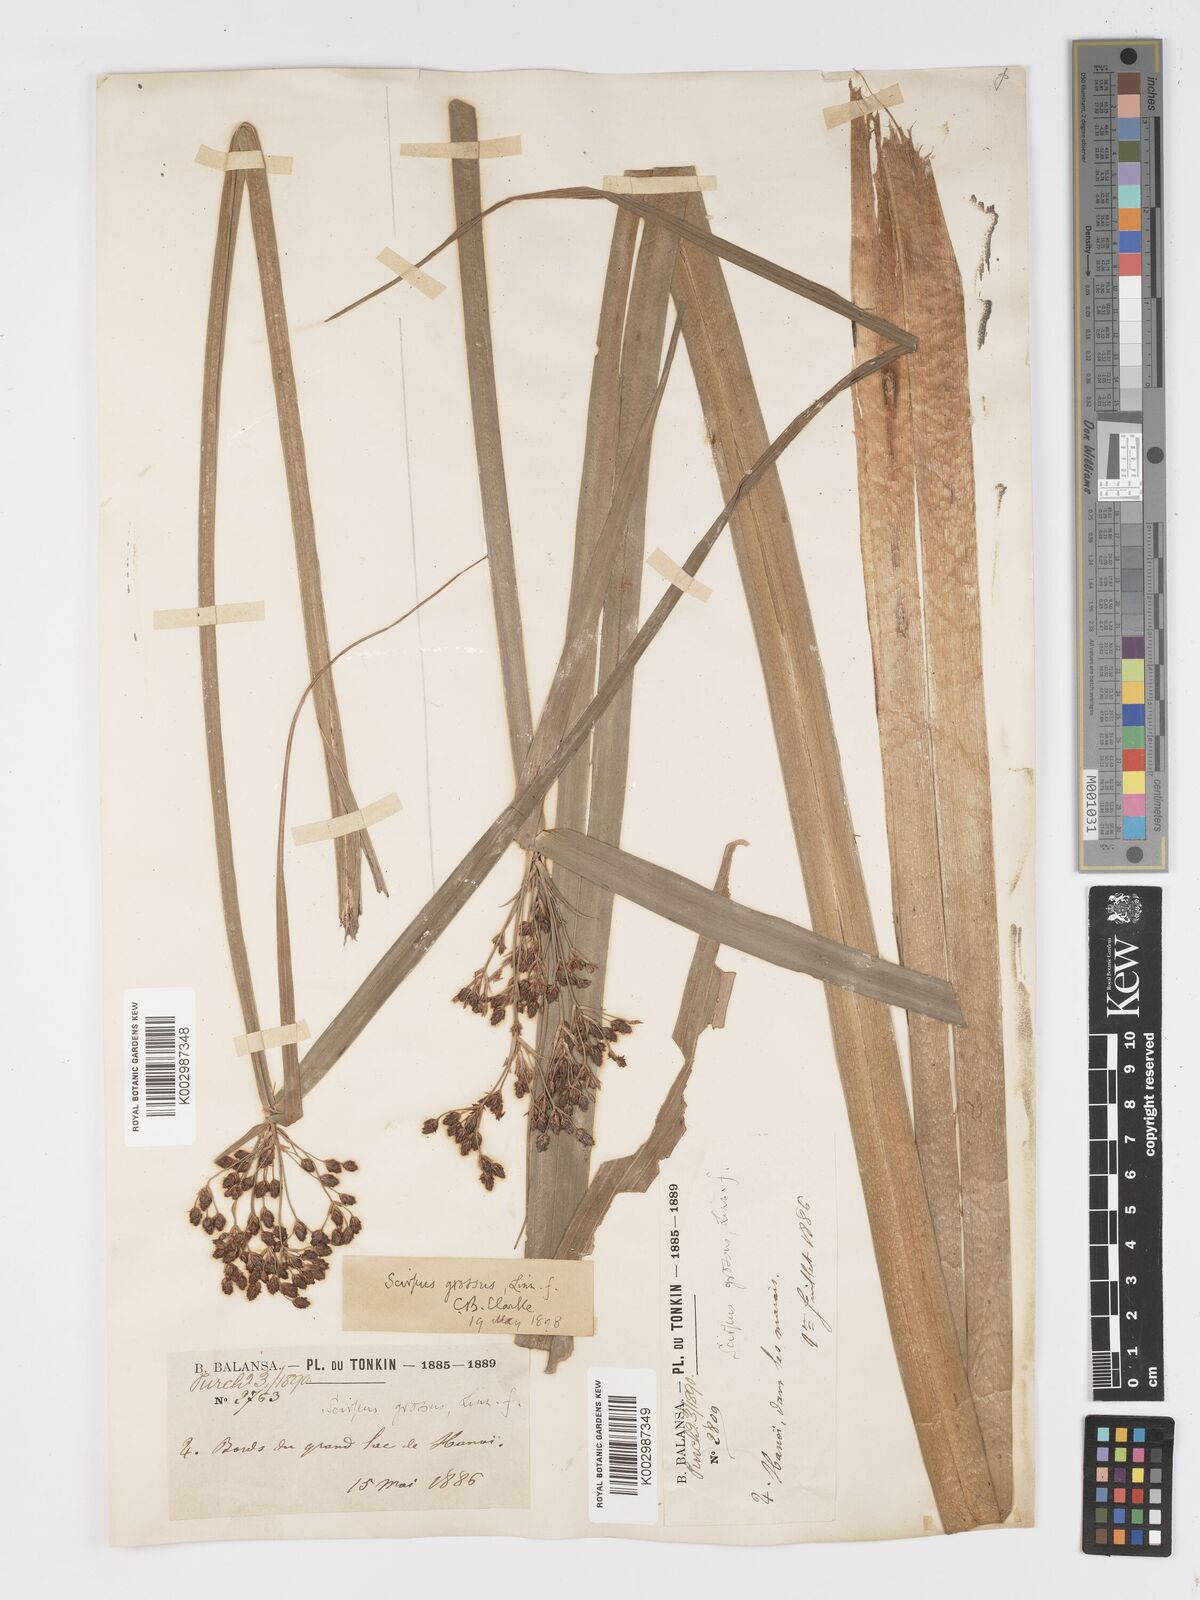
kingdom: Plantae
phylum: Tracheophyta
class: Liliopsida
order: Poales
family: Cyperaceae
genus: Actinoscirpus
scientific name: Actinoscirpus grossus
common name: Giant bur rush
